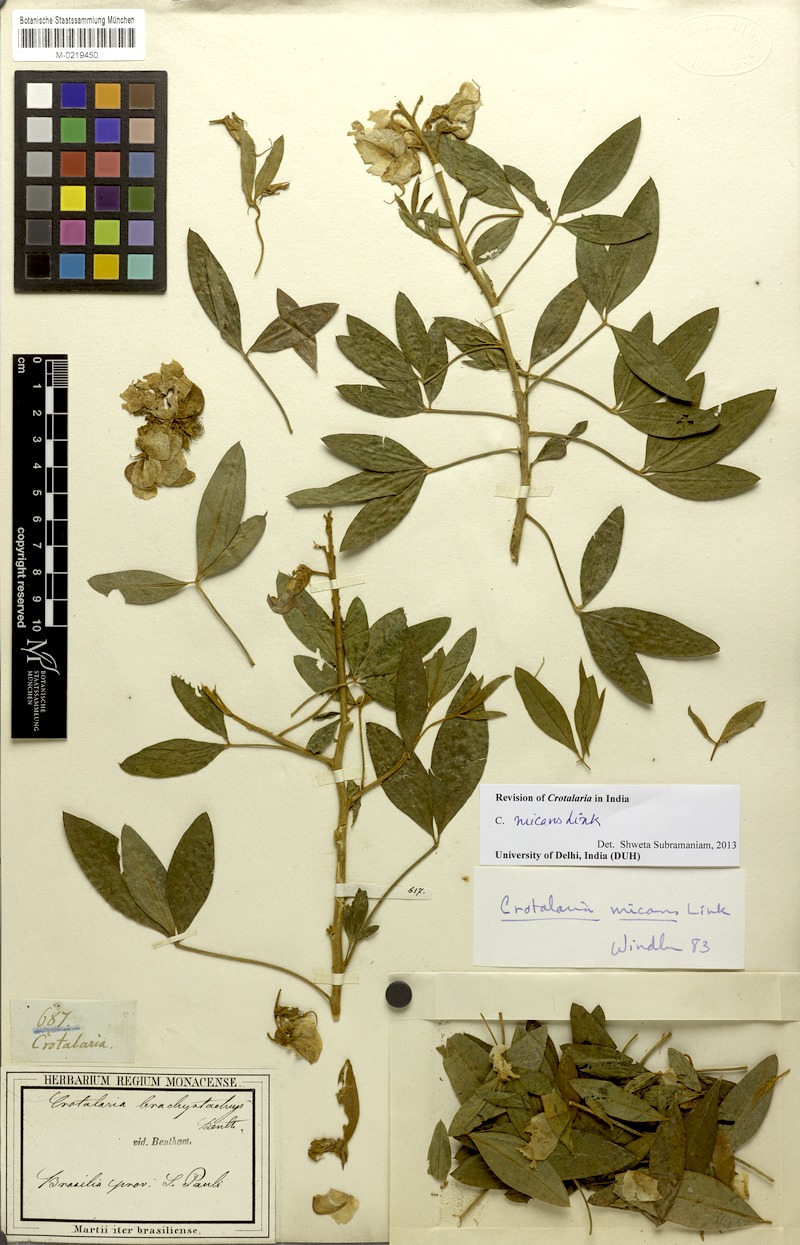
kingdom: Plantae
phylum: Tracheophyta
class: Magnoliopsida
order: Fabales
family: Fabaceae
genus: Crotalaria
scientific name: Crotalaria micans
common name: Caracas rattlebox
